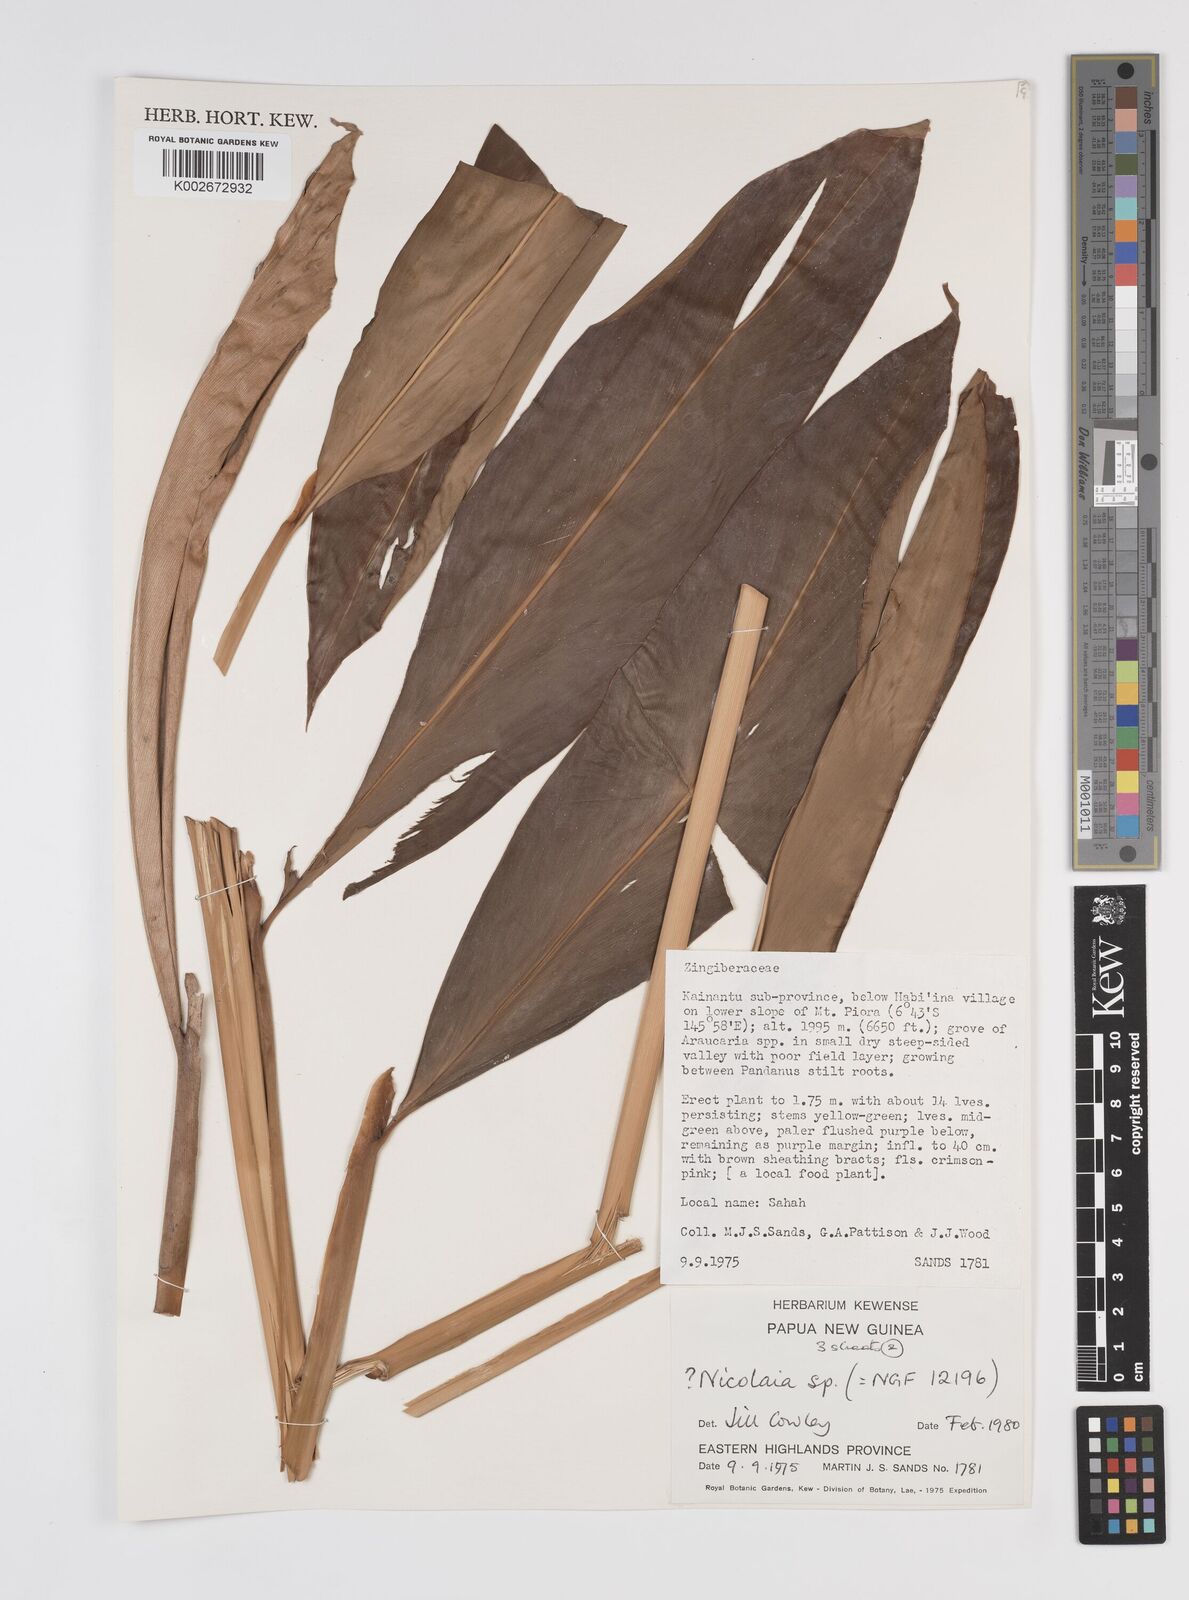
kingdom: Plantae
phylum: Tracheophyta
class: Liliopsida
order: Zingiberales
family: Zingiberaceae
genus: Etlingera
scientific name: Etlingera
